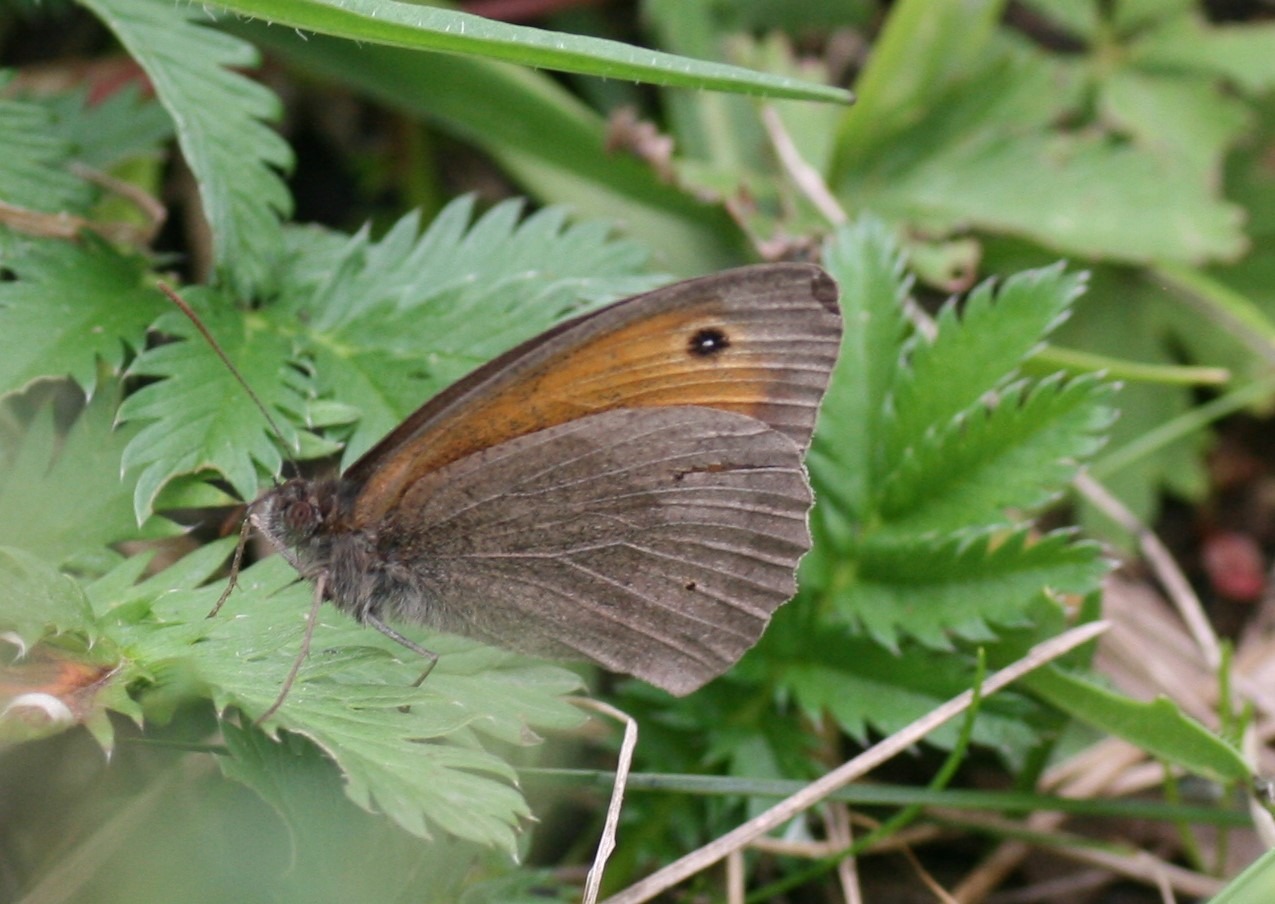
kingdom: Animalia
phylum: Arthropoda
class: Insecta
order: Lepidoptera
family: Nymphalidae
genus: Maniola
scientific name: Maniola jurtina
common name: Græsrandøje
